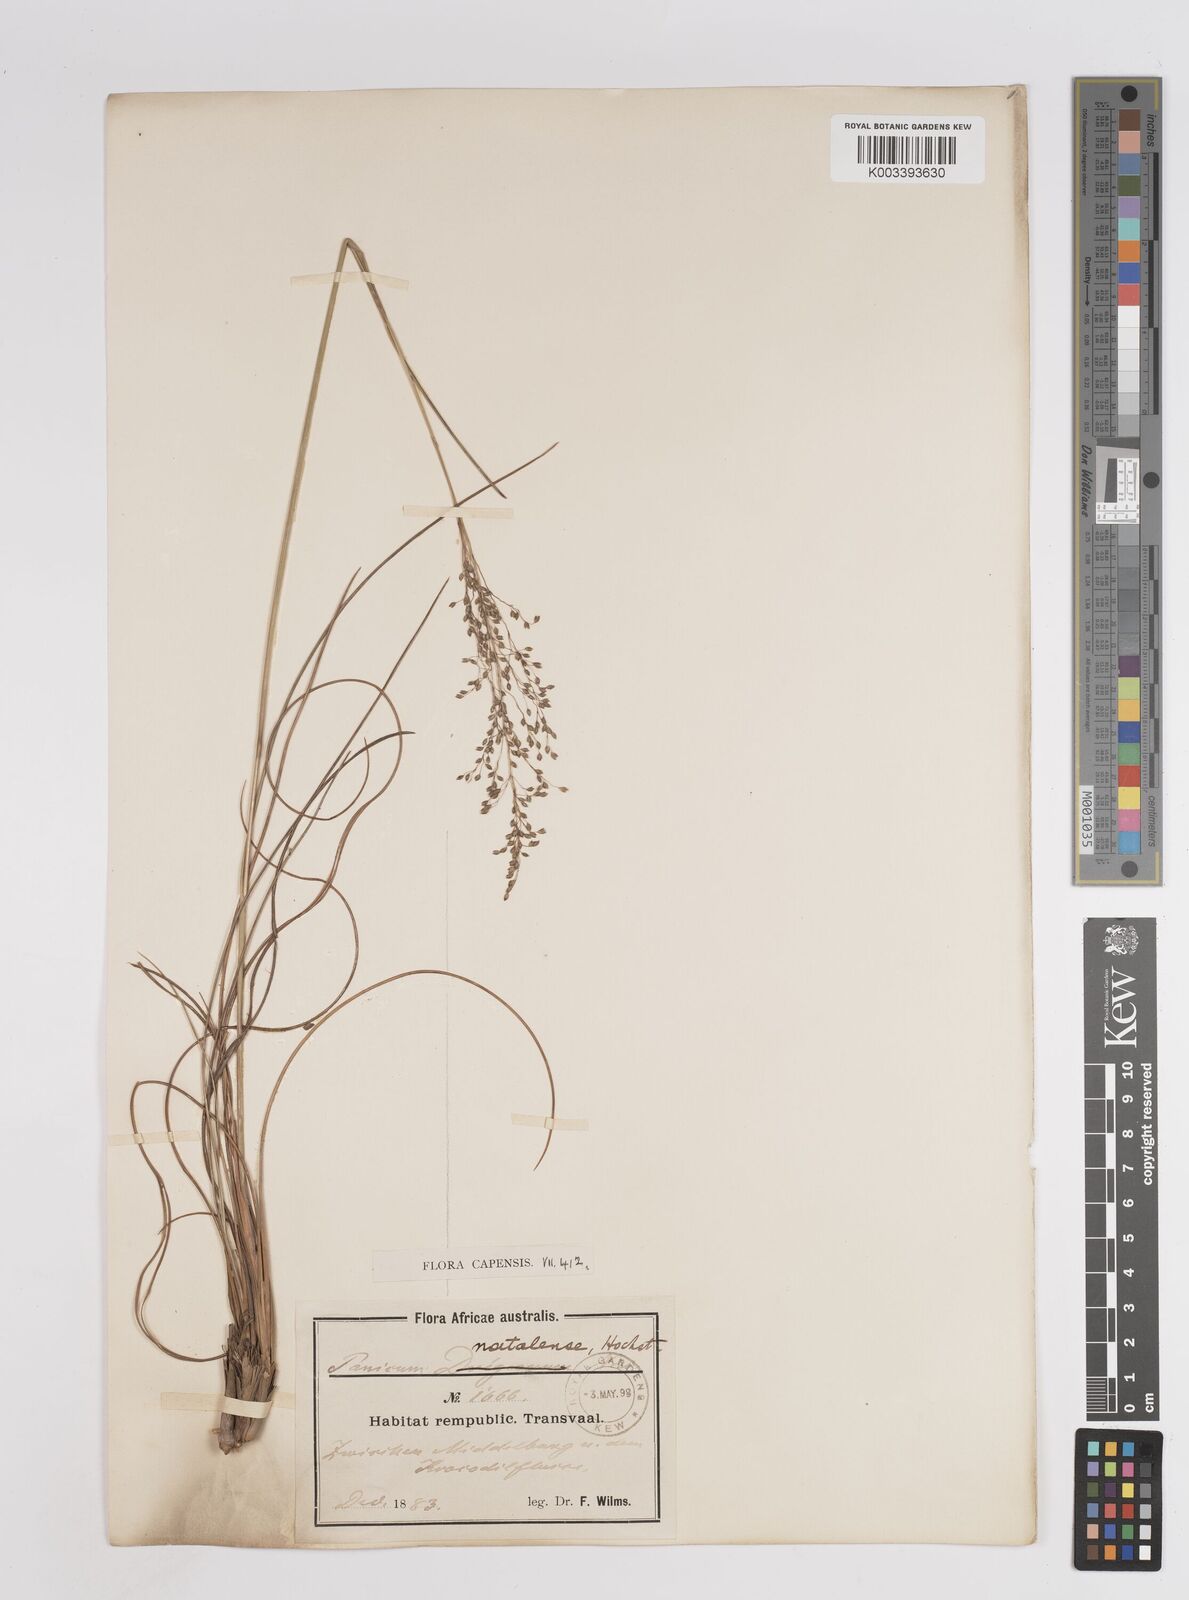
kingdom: Plantae
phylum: Tracheophyta
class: Liliopsida
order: Poales
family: Poaceae
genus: Trichanthecium
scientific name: Trichanthecium natalense
